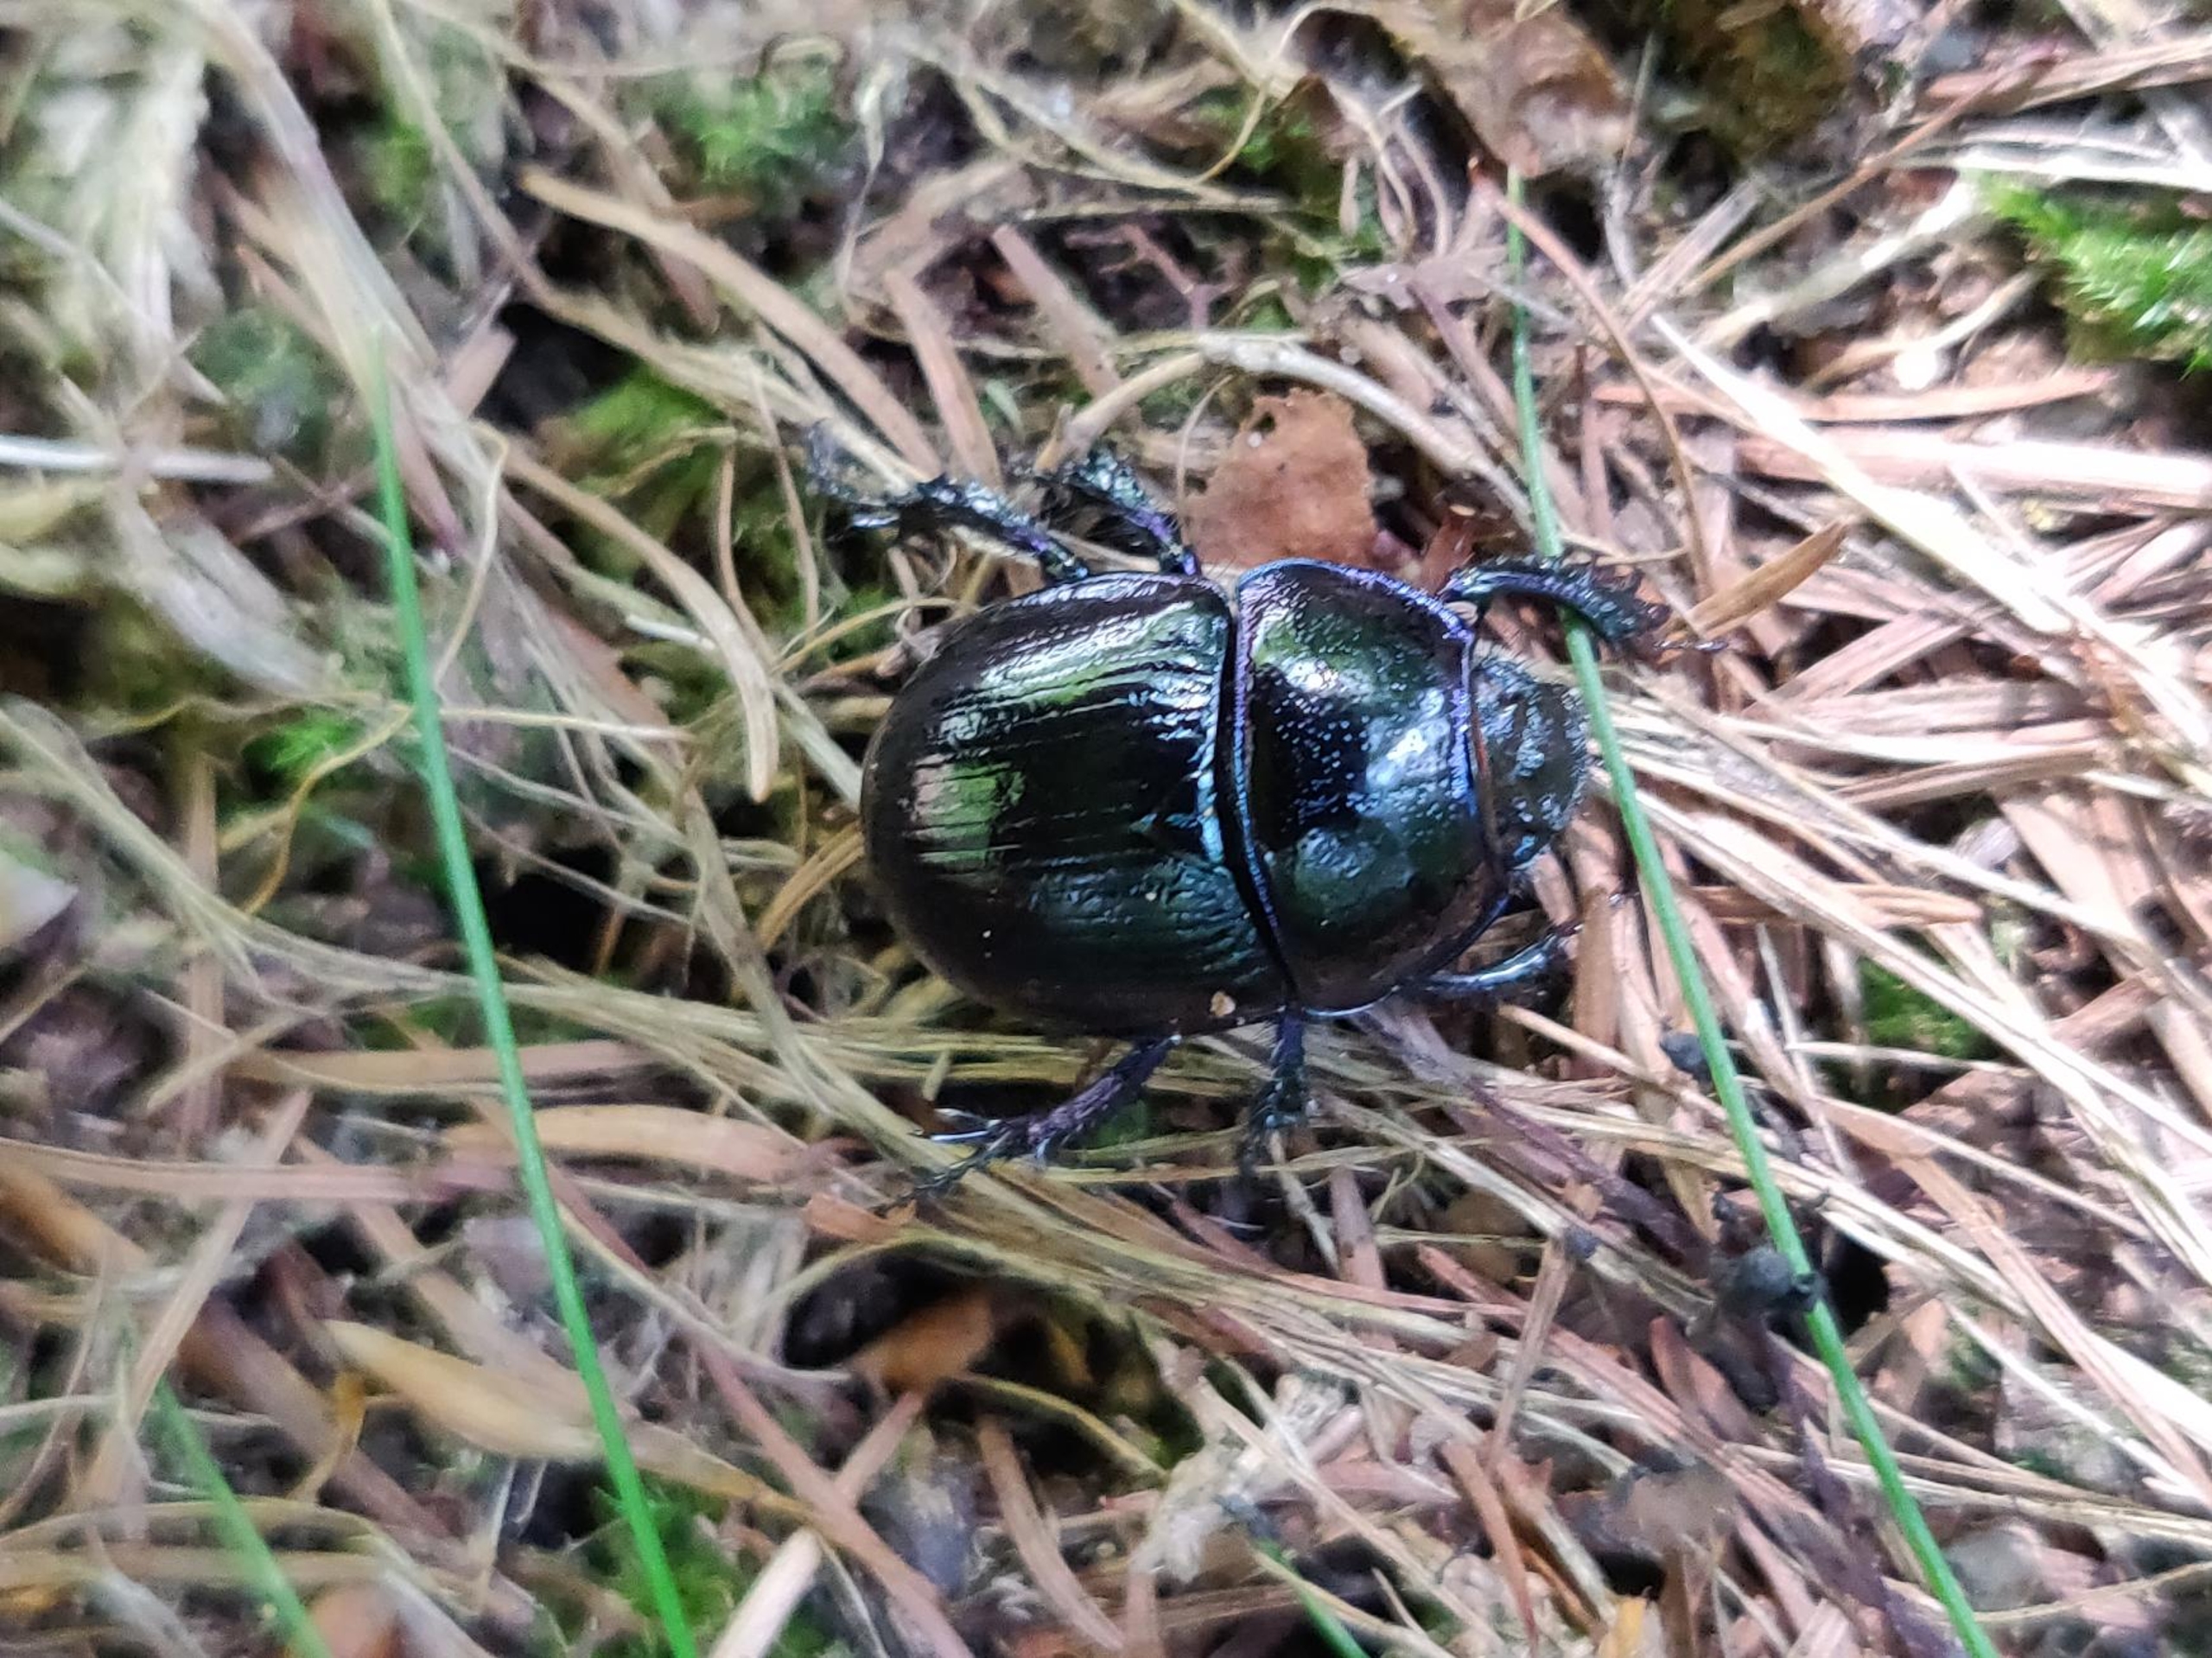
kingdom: Animalia
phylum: Arthropoda
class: Insecta
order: Coleoptera
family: Geotrupidae
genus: Anoplotrupes
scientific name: Anoplotrupes stercorosus
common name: Skovskarnbasse
